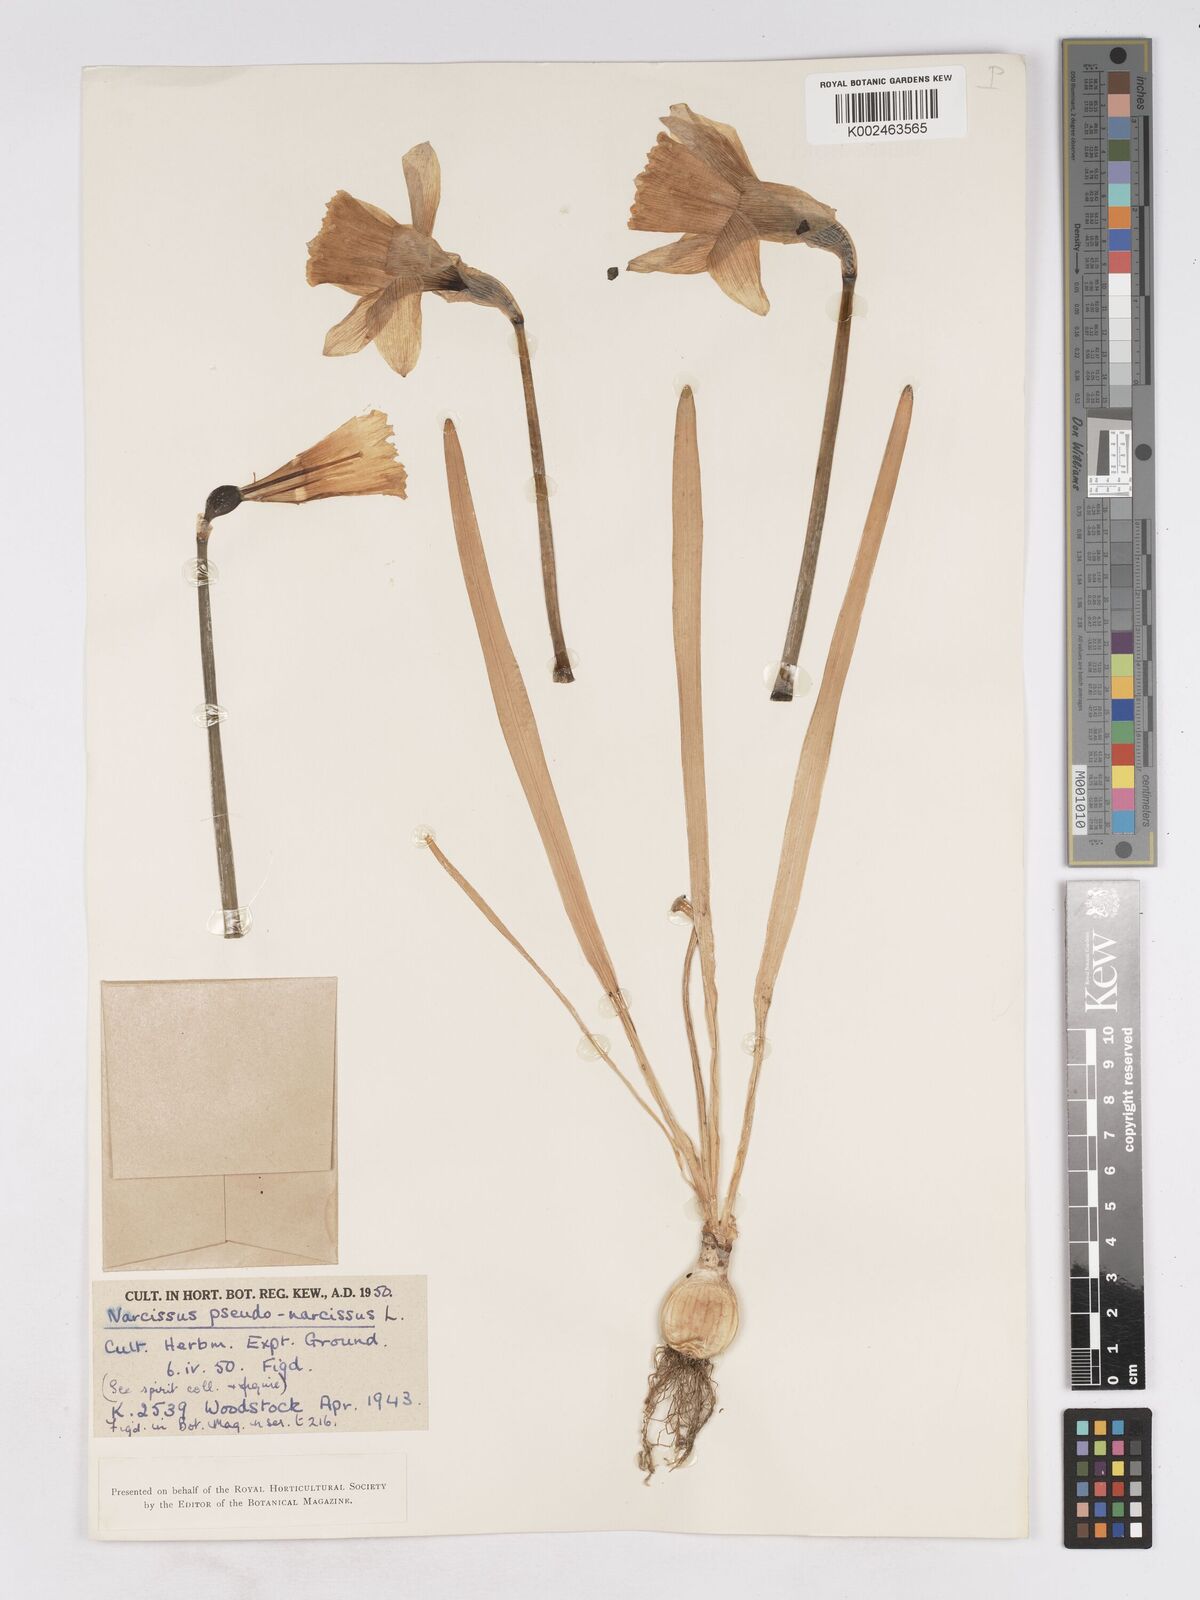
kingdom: Plantae
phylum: Tracheophyta
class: Liliopsida
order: Asparagales
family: Amaryllidaceae
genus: Narcissus
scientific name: Narcissus pseudonarcissus
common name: Daffodil
